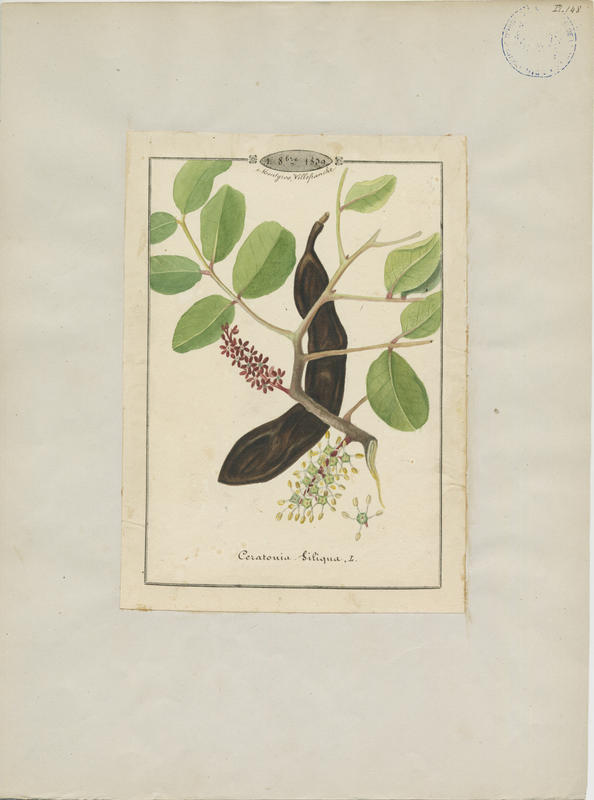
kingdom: Plantae
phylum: Tracheophyta
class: Magnoliopsida
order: Fabales
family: Fabaceae
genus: Ceratonia
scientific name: Ceratonia siliqua
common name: Carob
